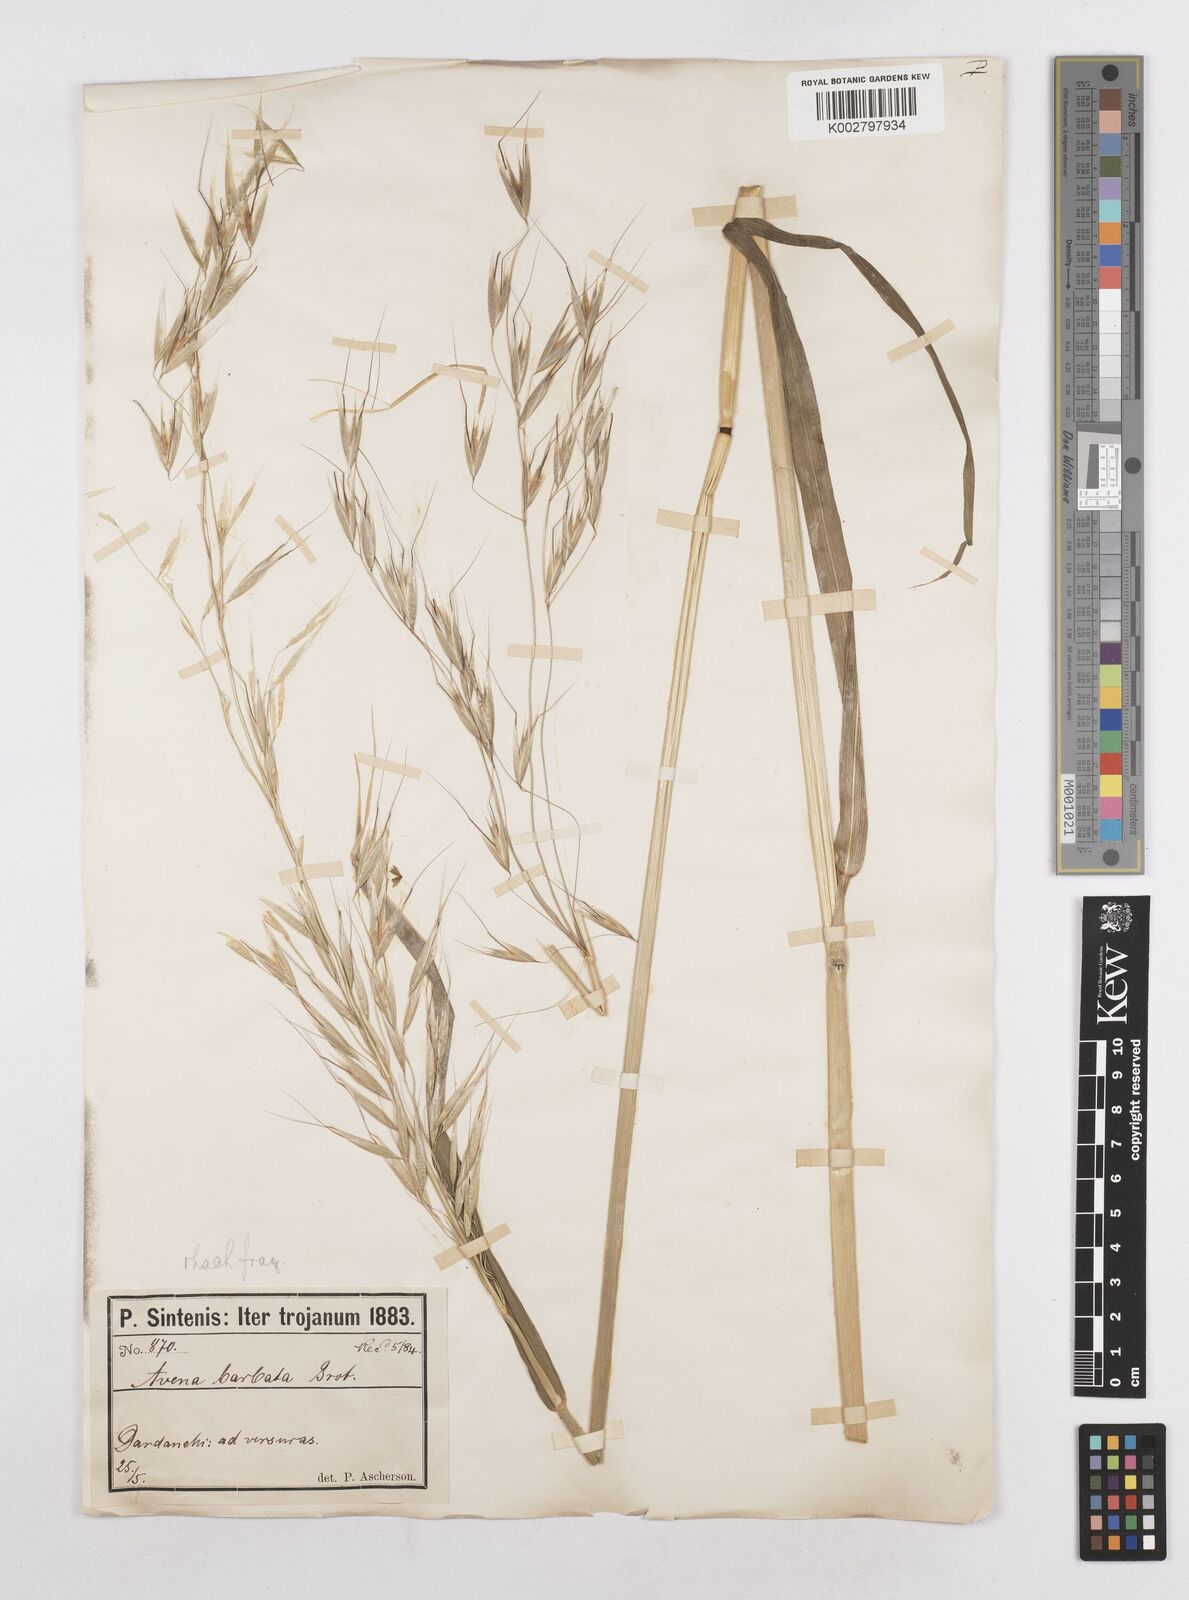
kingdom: Plantae
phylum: Tracheophyta
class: Liliopsida
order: Poales
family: Poaceae
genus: Avena
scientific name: Avena
